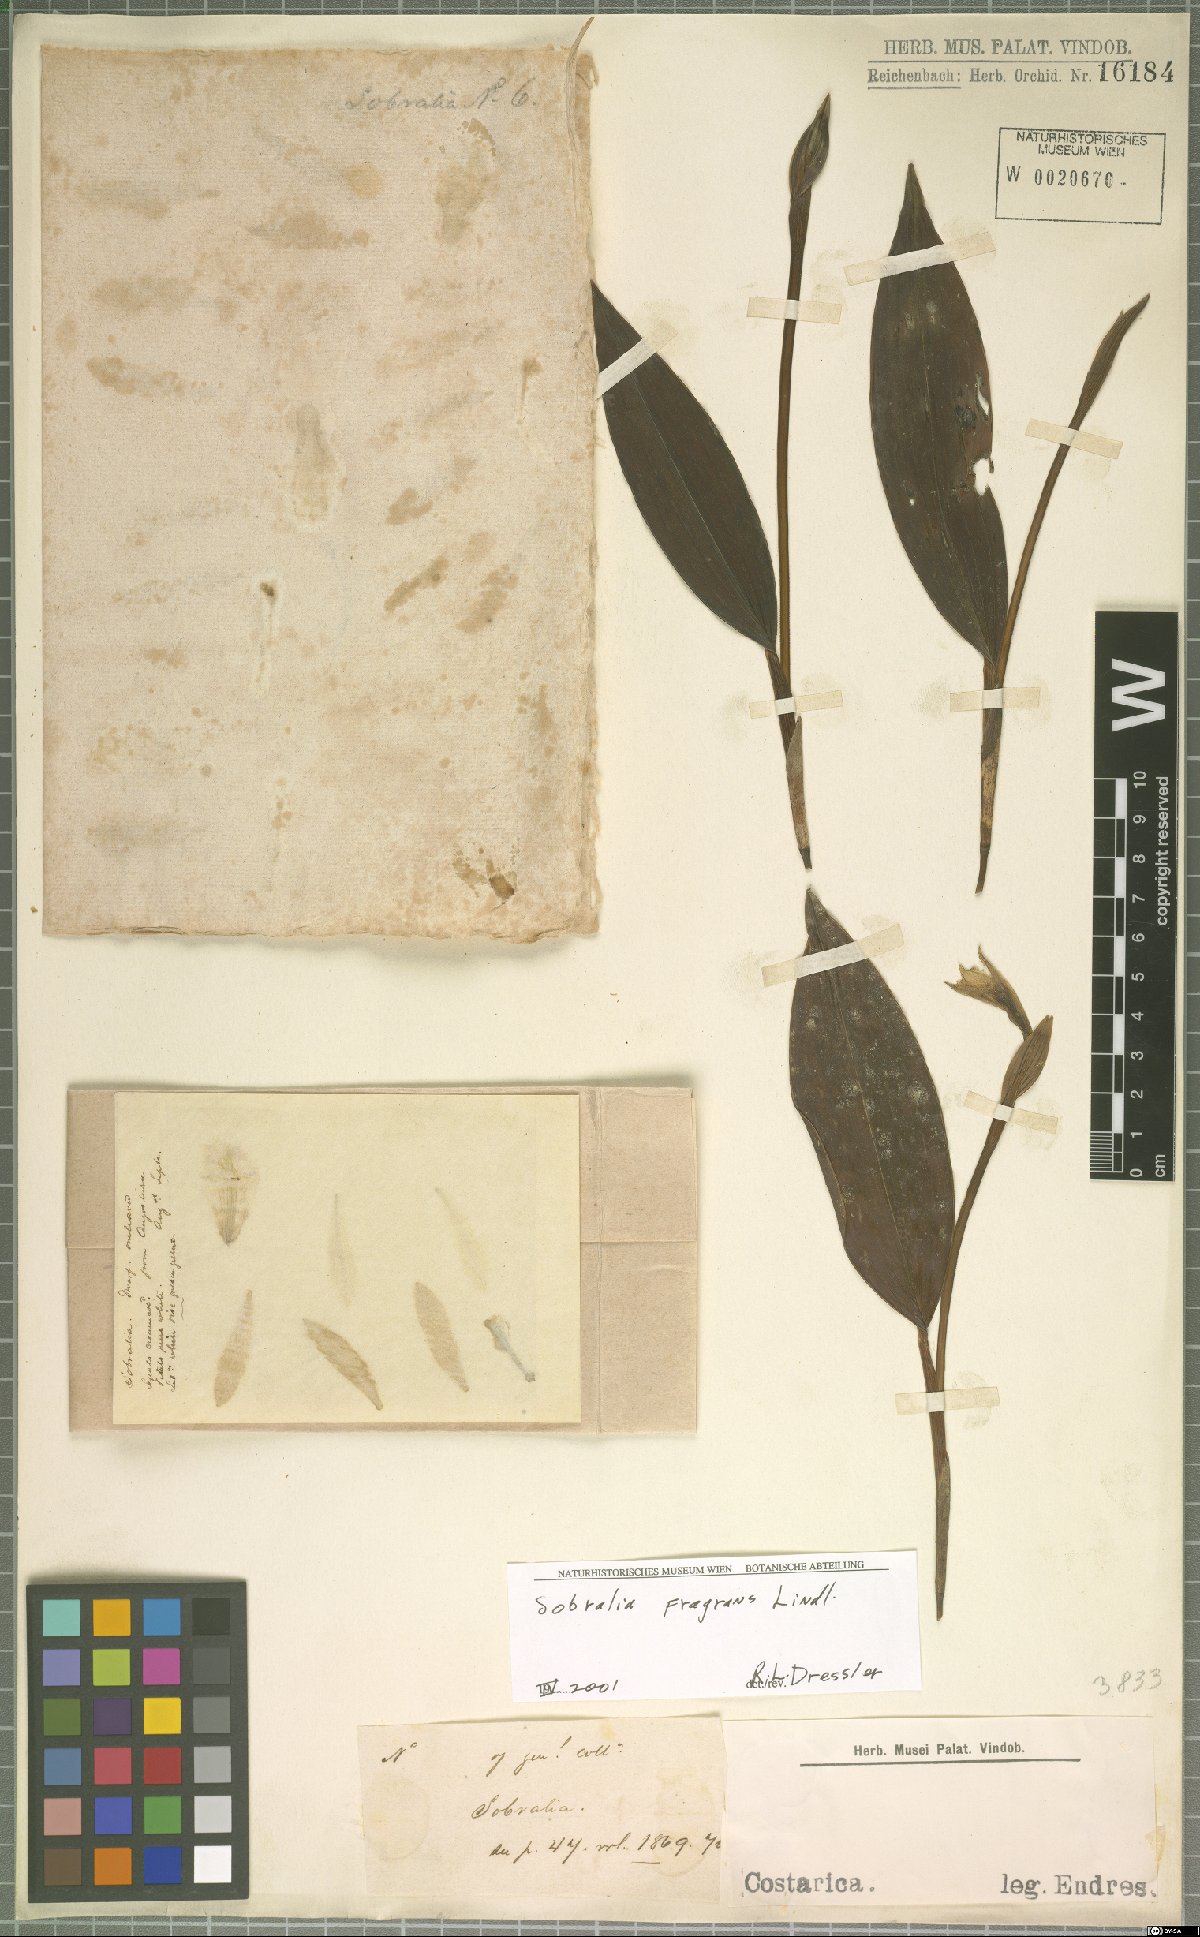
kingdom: Plantae
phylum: Tracheophyta
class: Liliopsida
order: Asparagales
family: Orchidaceae
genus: Sobralia
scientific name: Sobralia fragrans
